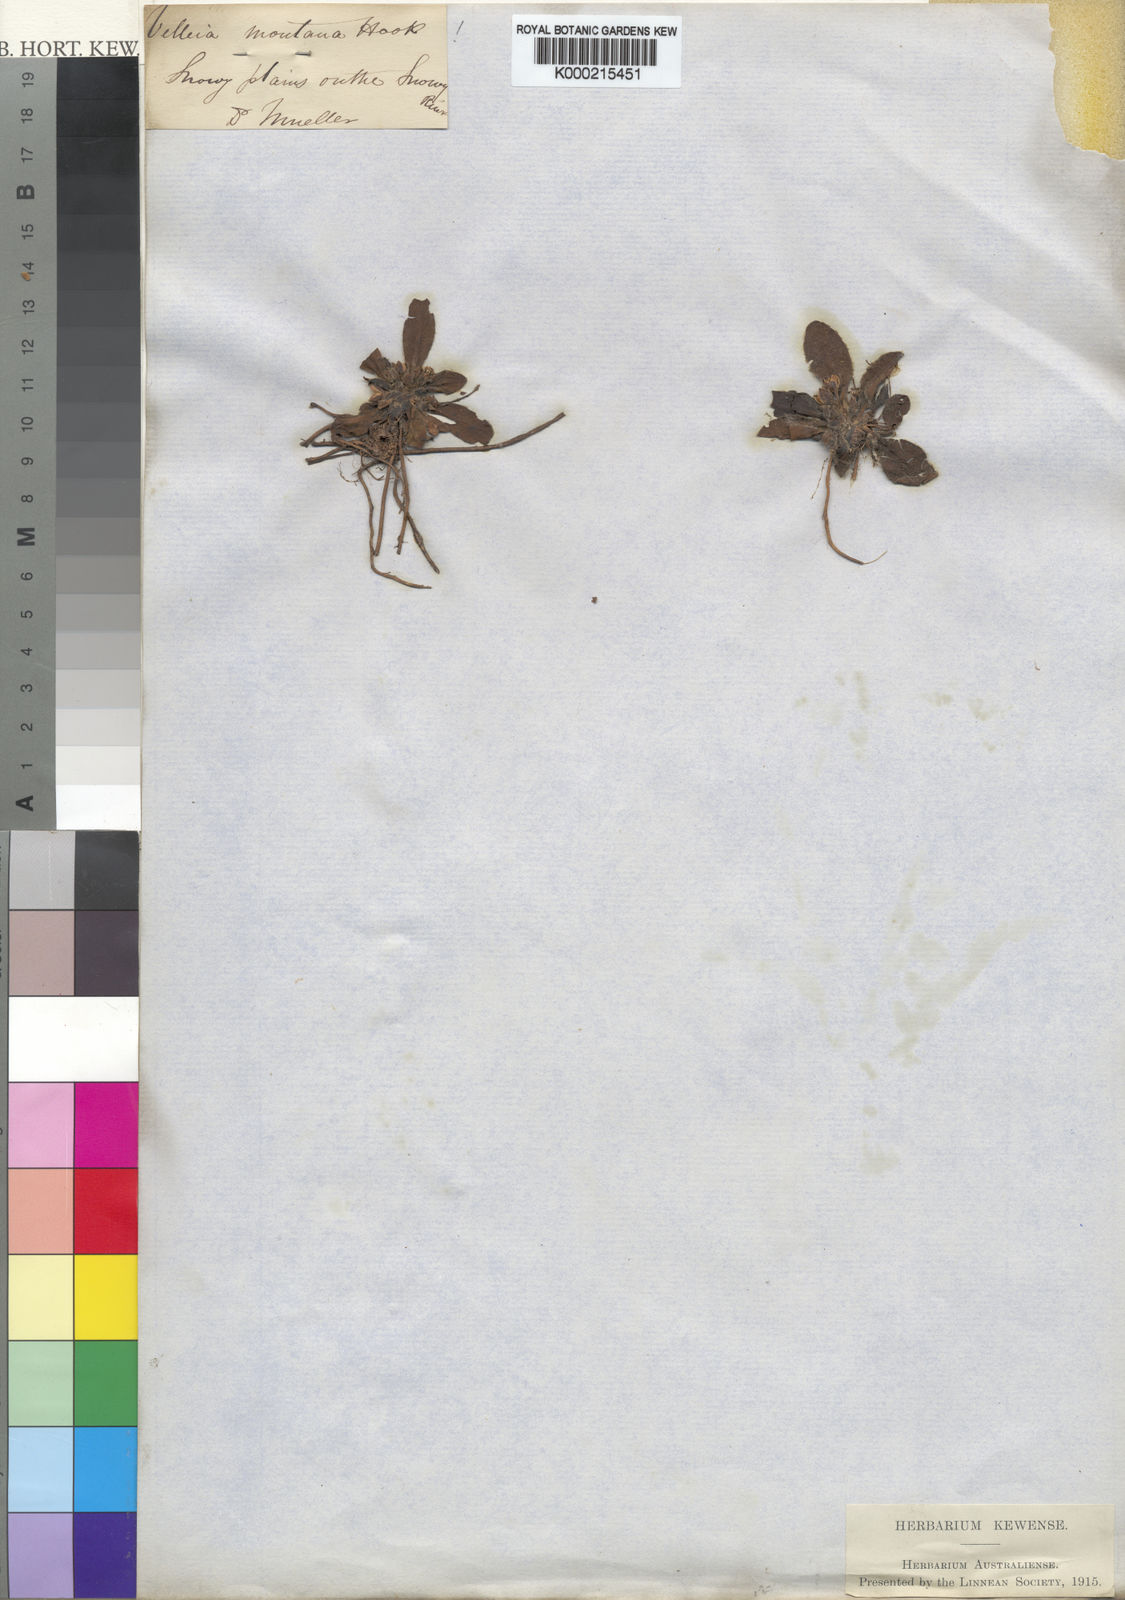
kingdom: Plantae
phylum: Tracheophyta
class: Magnoliopsida
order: Asterales
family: Goodeniaceae
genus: Goodenia
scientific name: Goodenia montana
